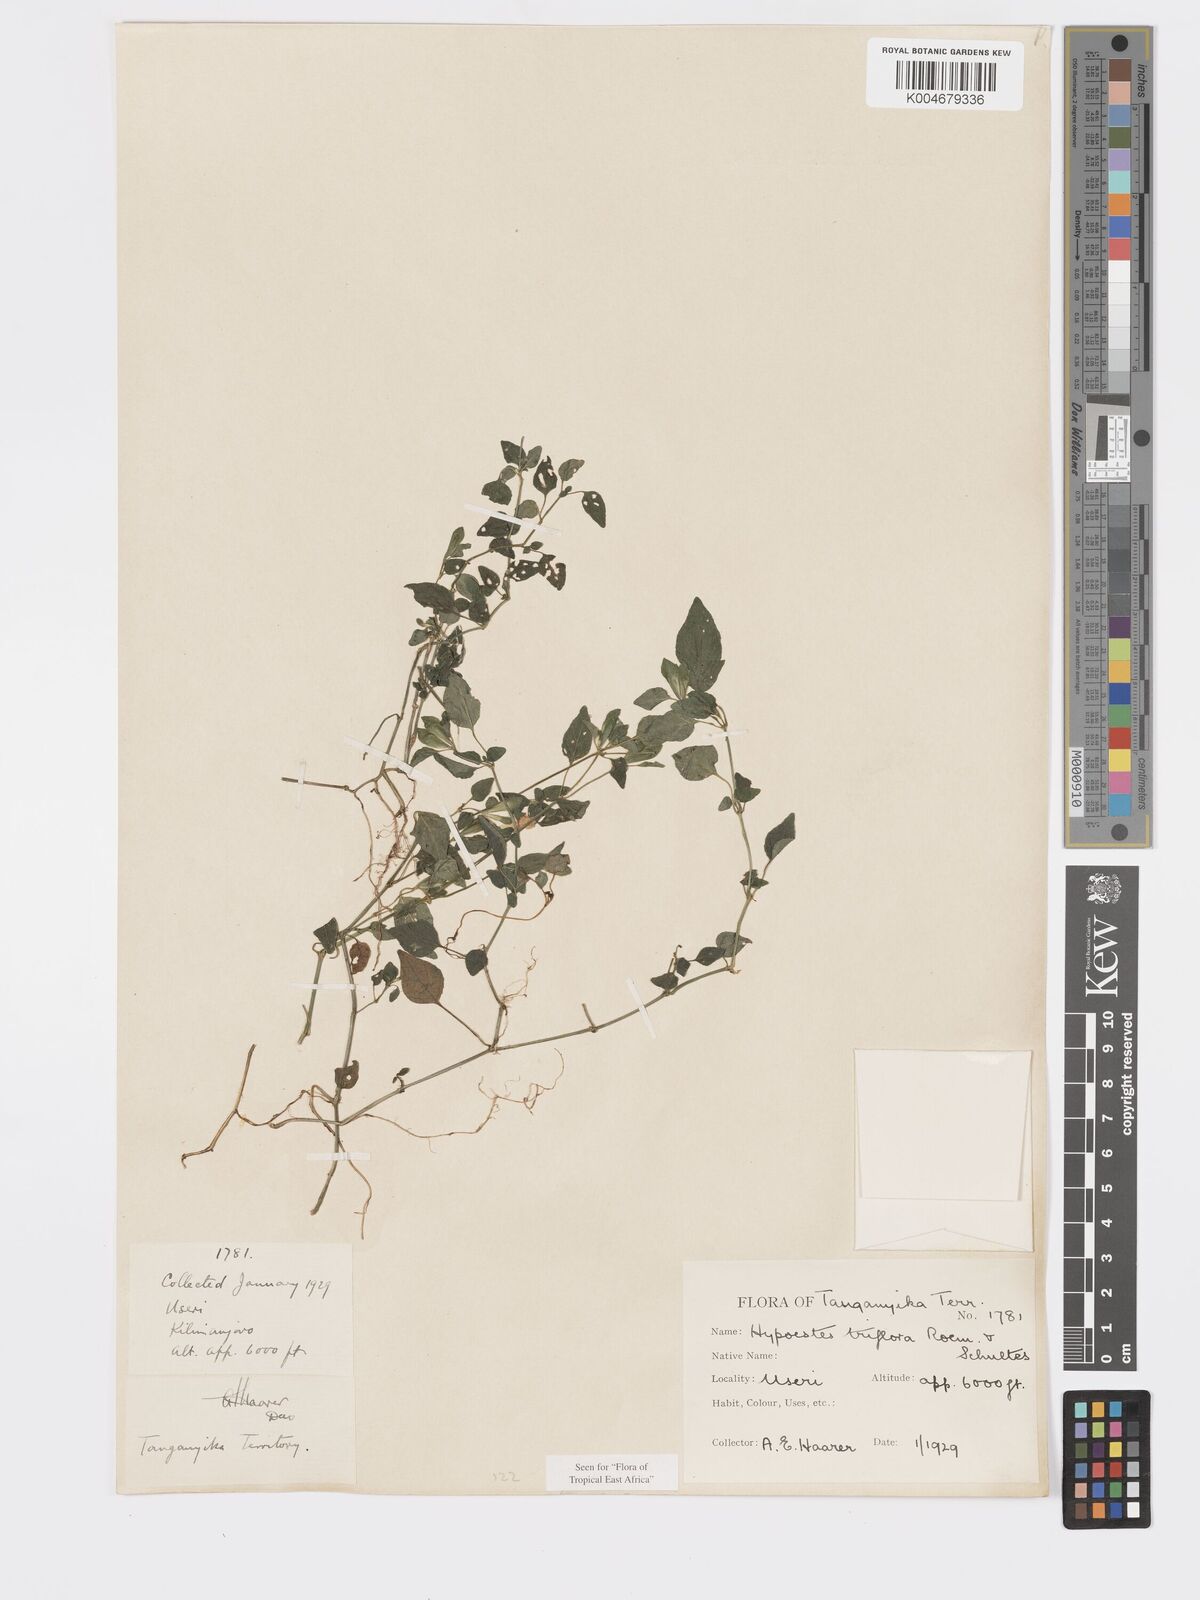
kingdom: Plantae
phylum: Tracheophyta
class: Magnoliopsida
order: Lamiales
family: Acanthaceae
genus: Hypoestes
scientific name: Hypoestes triflora
